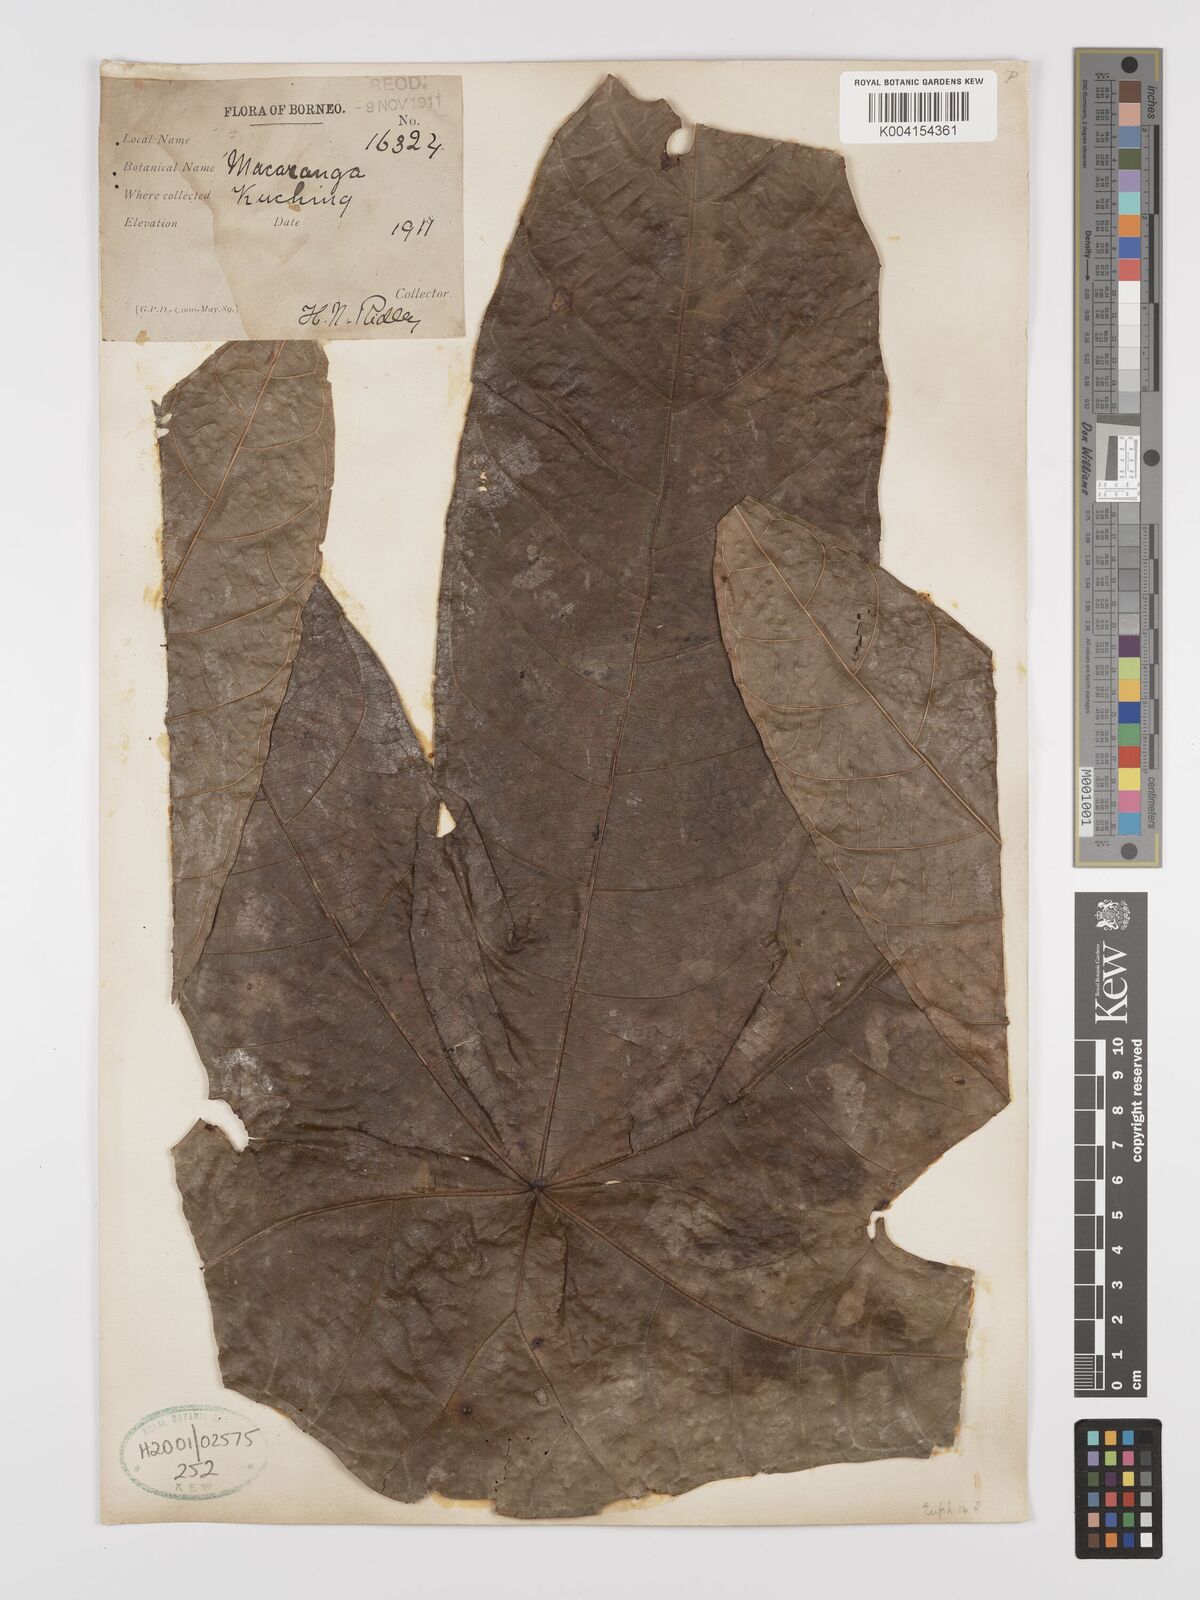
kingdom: Plantae
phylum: Tracheophyta
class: Magnoliopsida
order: Malpighiales
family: Euphorbiaceae
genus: Macaranga
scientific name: Macaranga umbrosa
